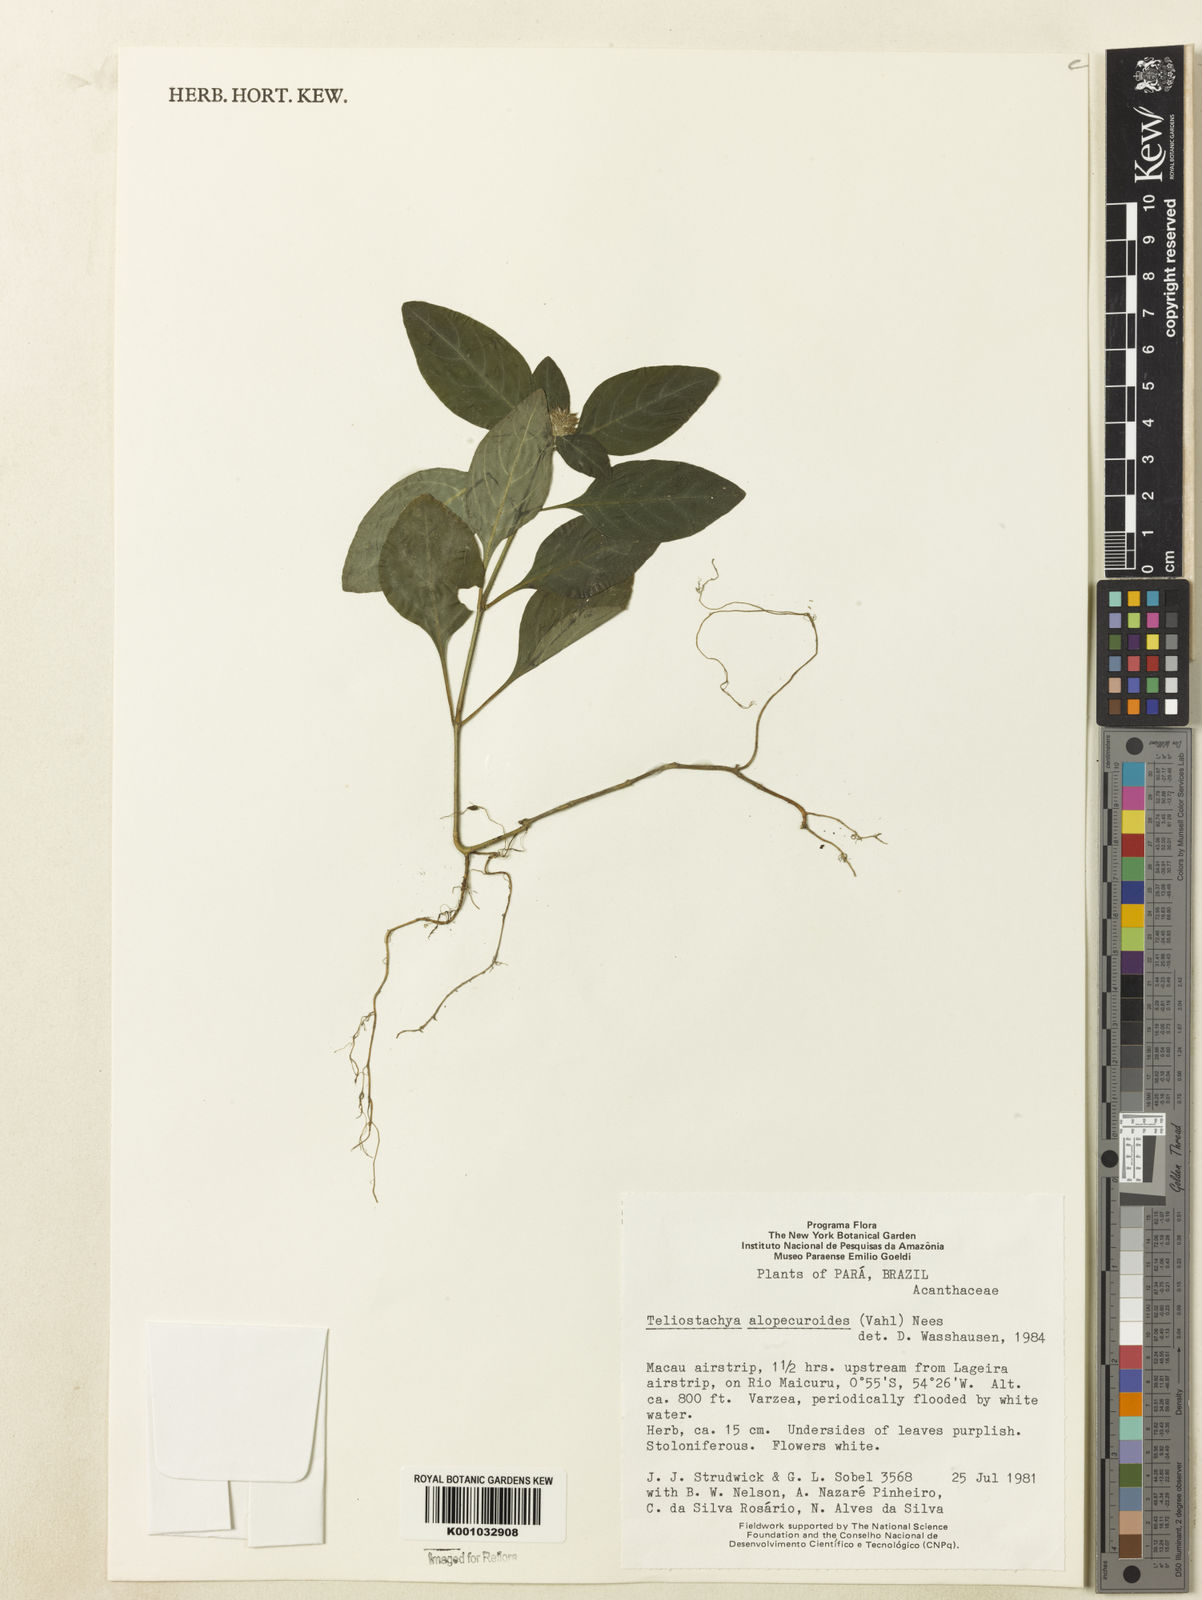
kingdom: Plantae
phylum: Tracheophyta
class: Magnoliopsida
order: Lamiales
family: Acanthaceae
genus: Lepidagathis
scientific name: Lepidagathis alopecuroidea
